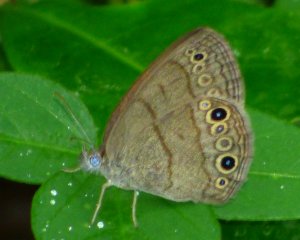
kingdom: Animalia
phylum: Arthropoda
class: Insecta
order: Lepidoptera
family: Nymphalidae
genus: Hermeuptychia
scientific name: Hermeuptychia hermes
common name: Carolina Satyr
